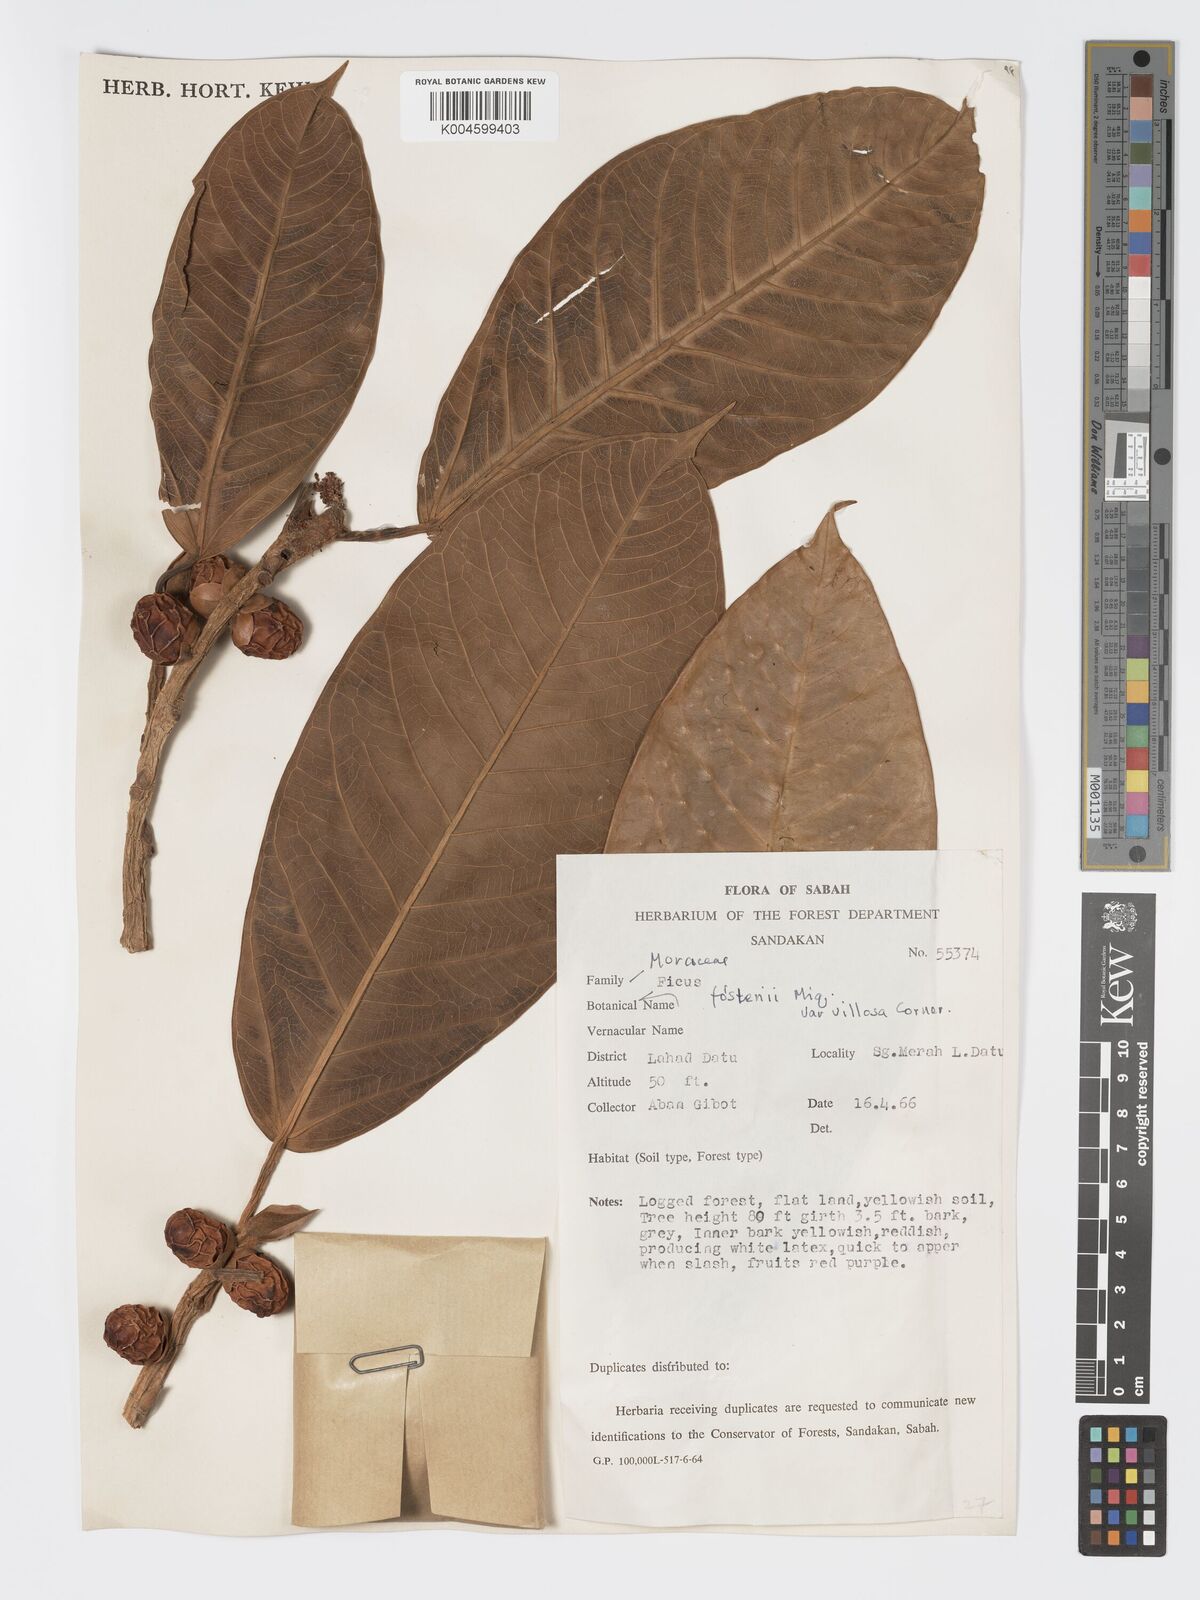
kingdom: Plantae
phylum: Tracheophyta
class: Magnoliopsida
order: Rosales
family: Moraceae
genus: Ficus
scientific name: Ficus forstenii
